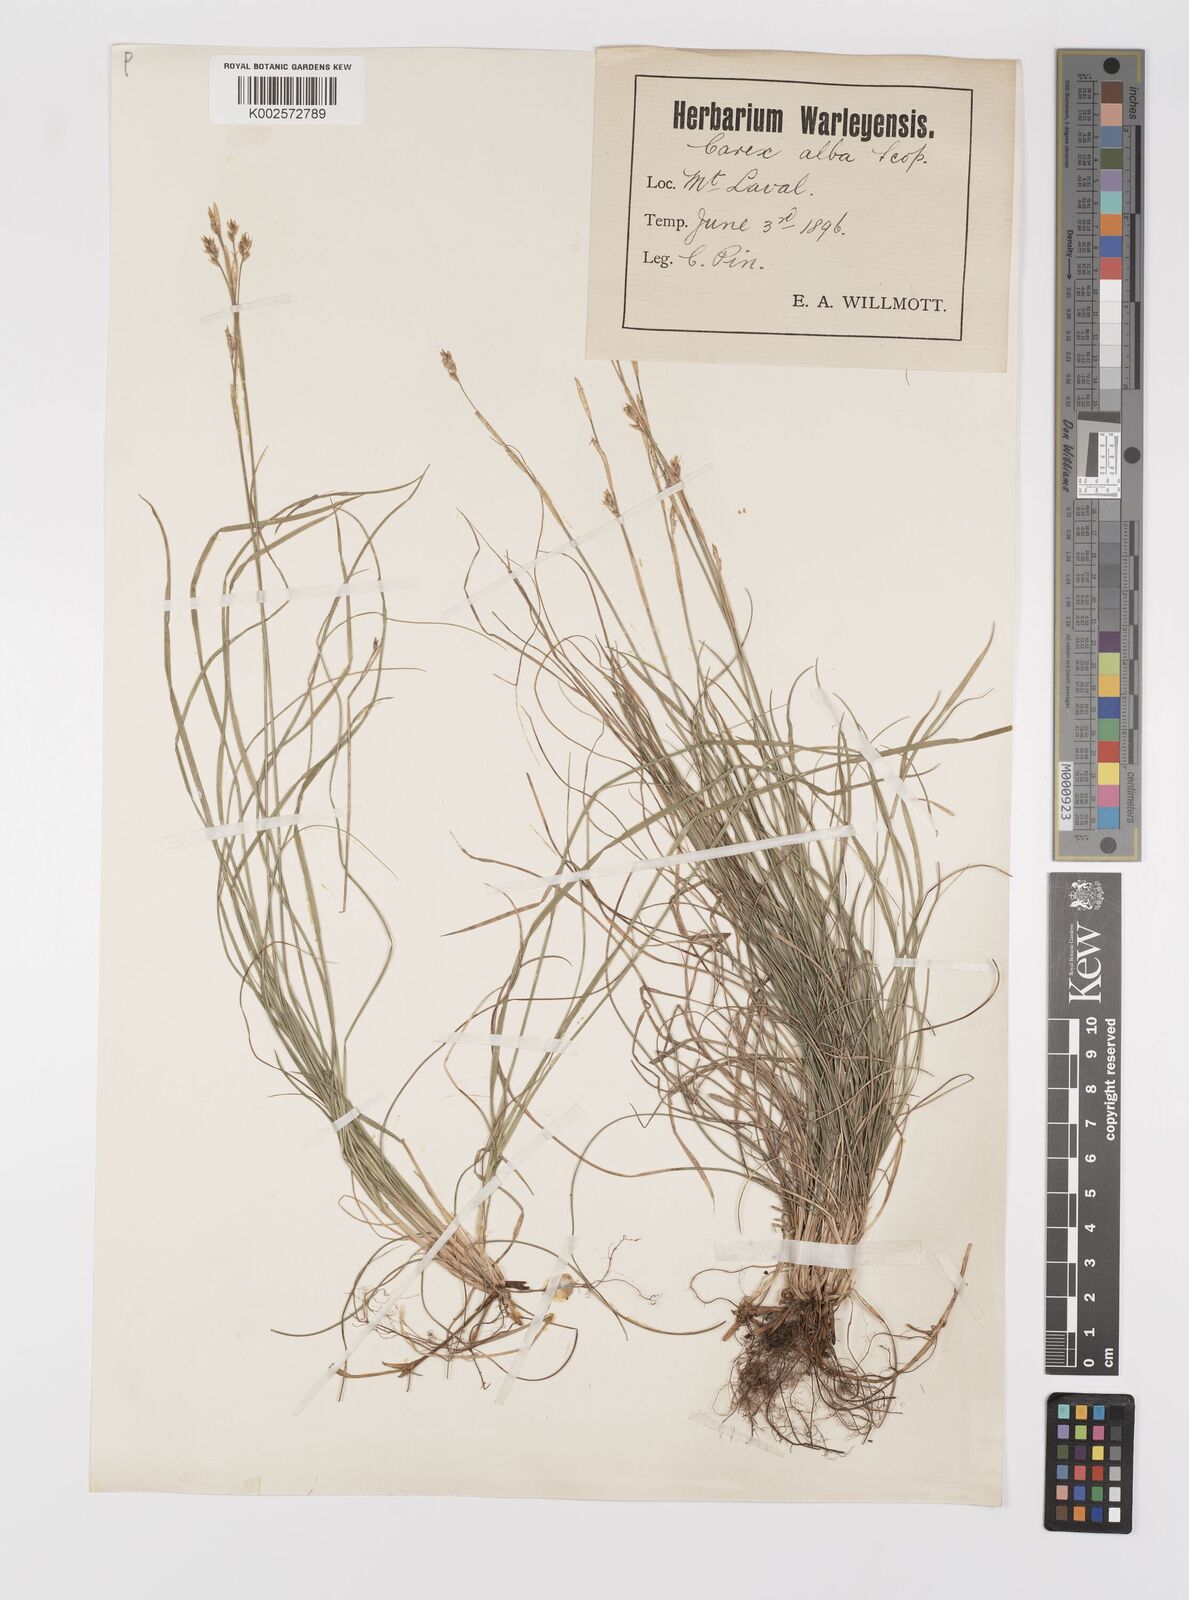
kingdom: Plantae
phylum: Tracheophyta
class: Liliopsida
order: Poales
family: Cyperaceae
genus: Carex
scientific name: Carex alba
